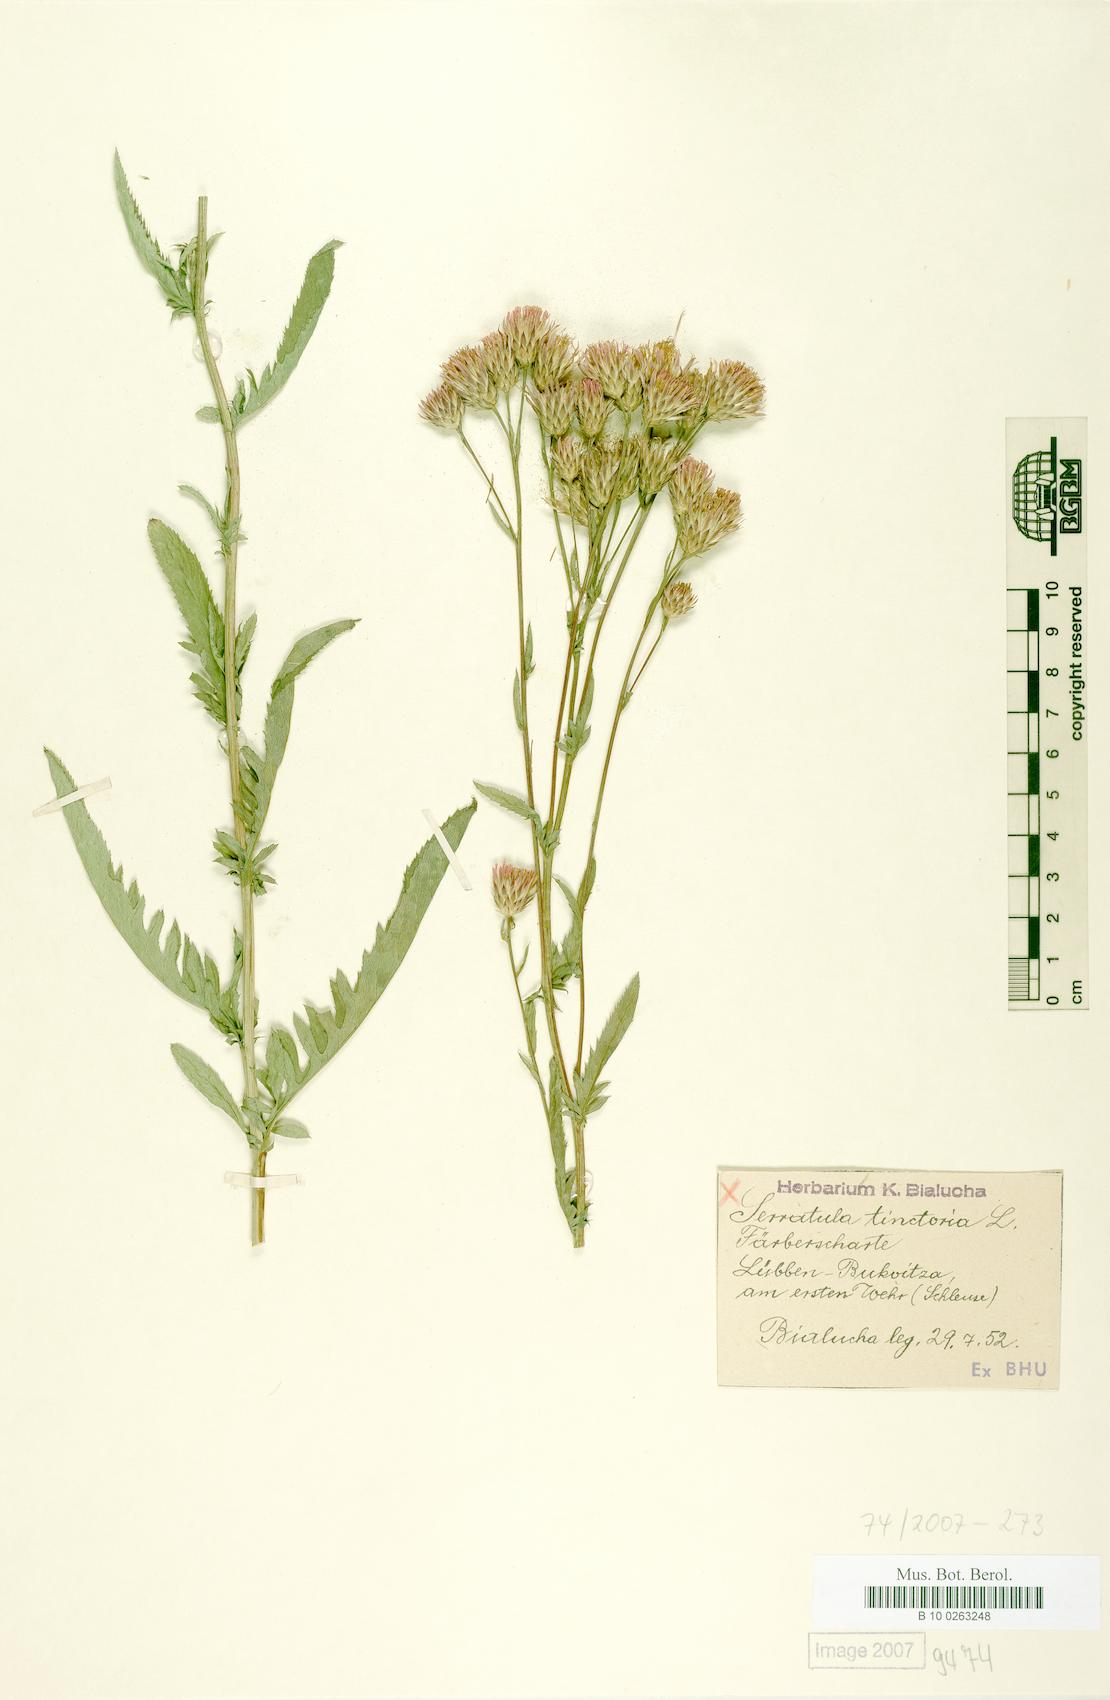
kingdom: Plantae
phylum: Tracheophyta
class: Magnoliopsida
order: Asterales
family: Asteraceae
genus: Serratula
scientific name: Serratula tinctoria
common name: Saw-wort
